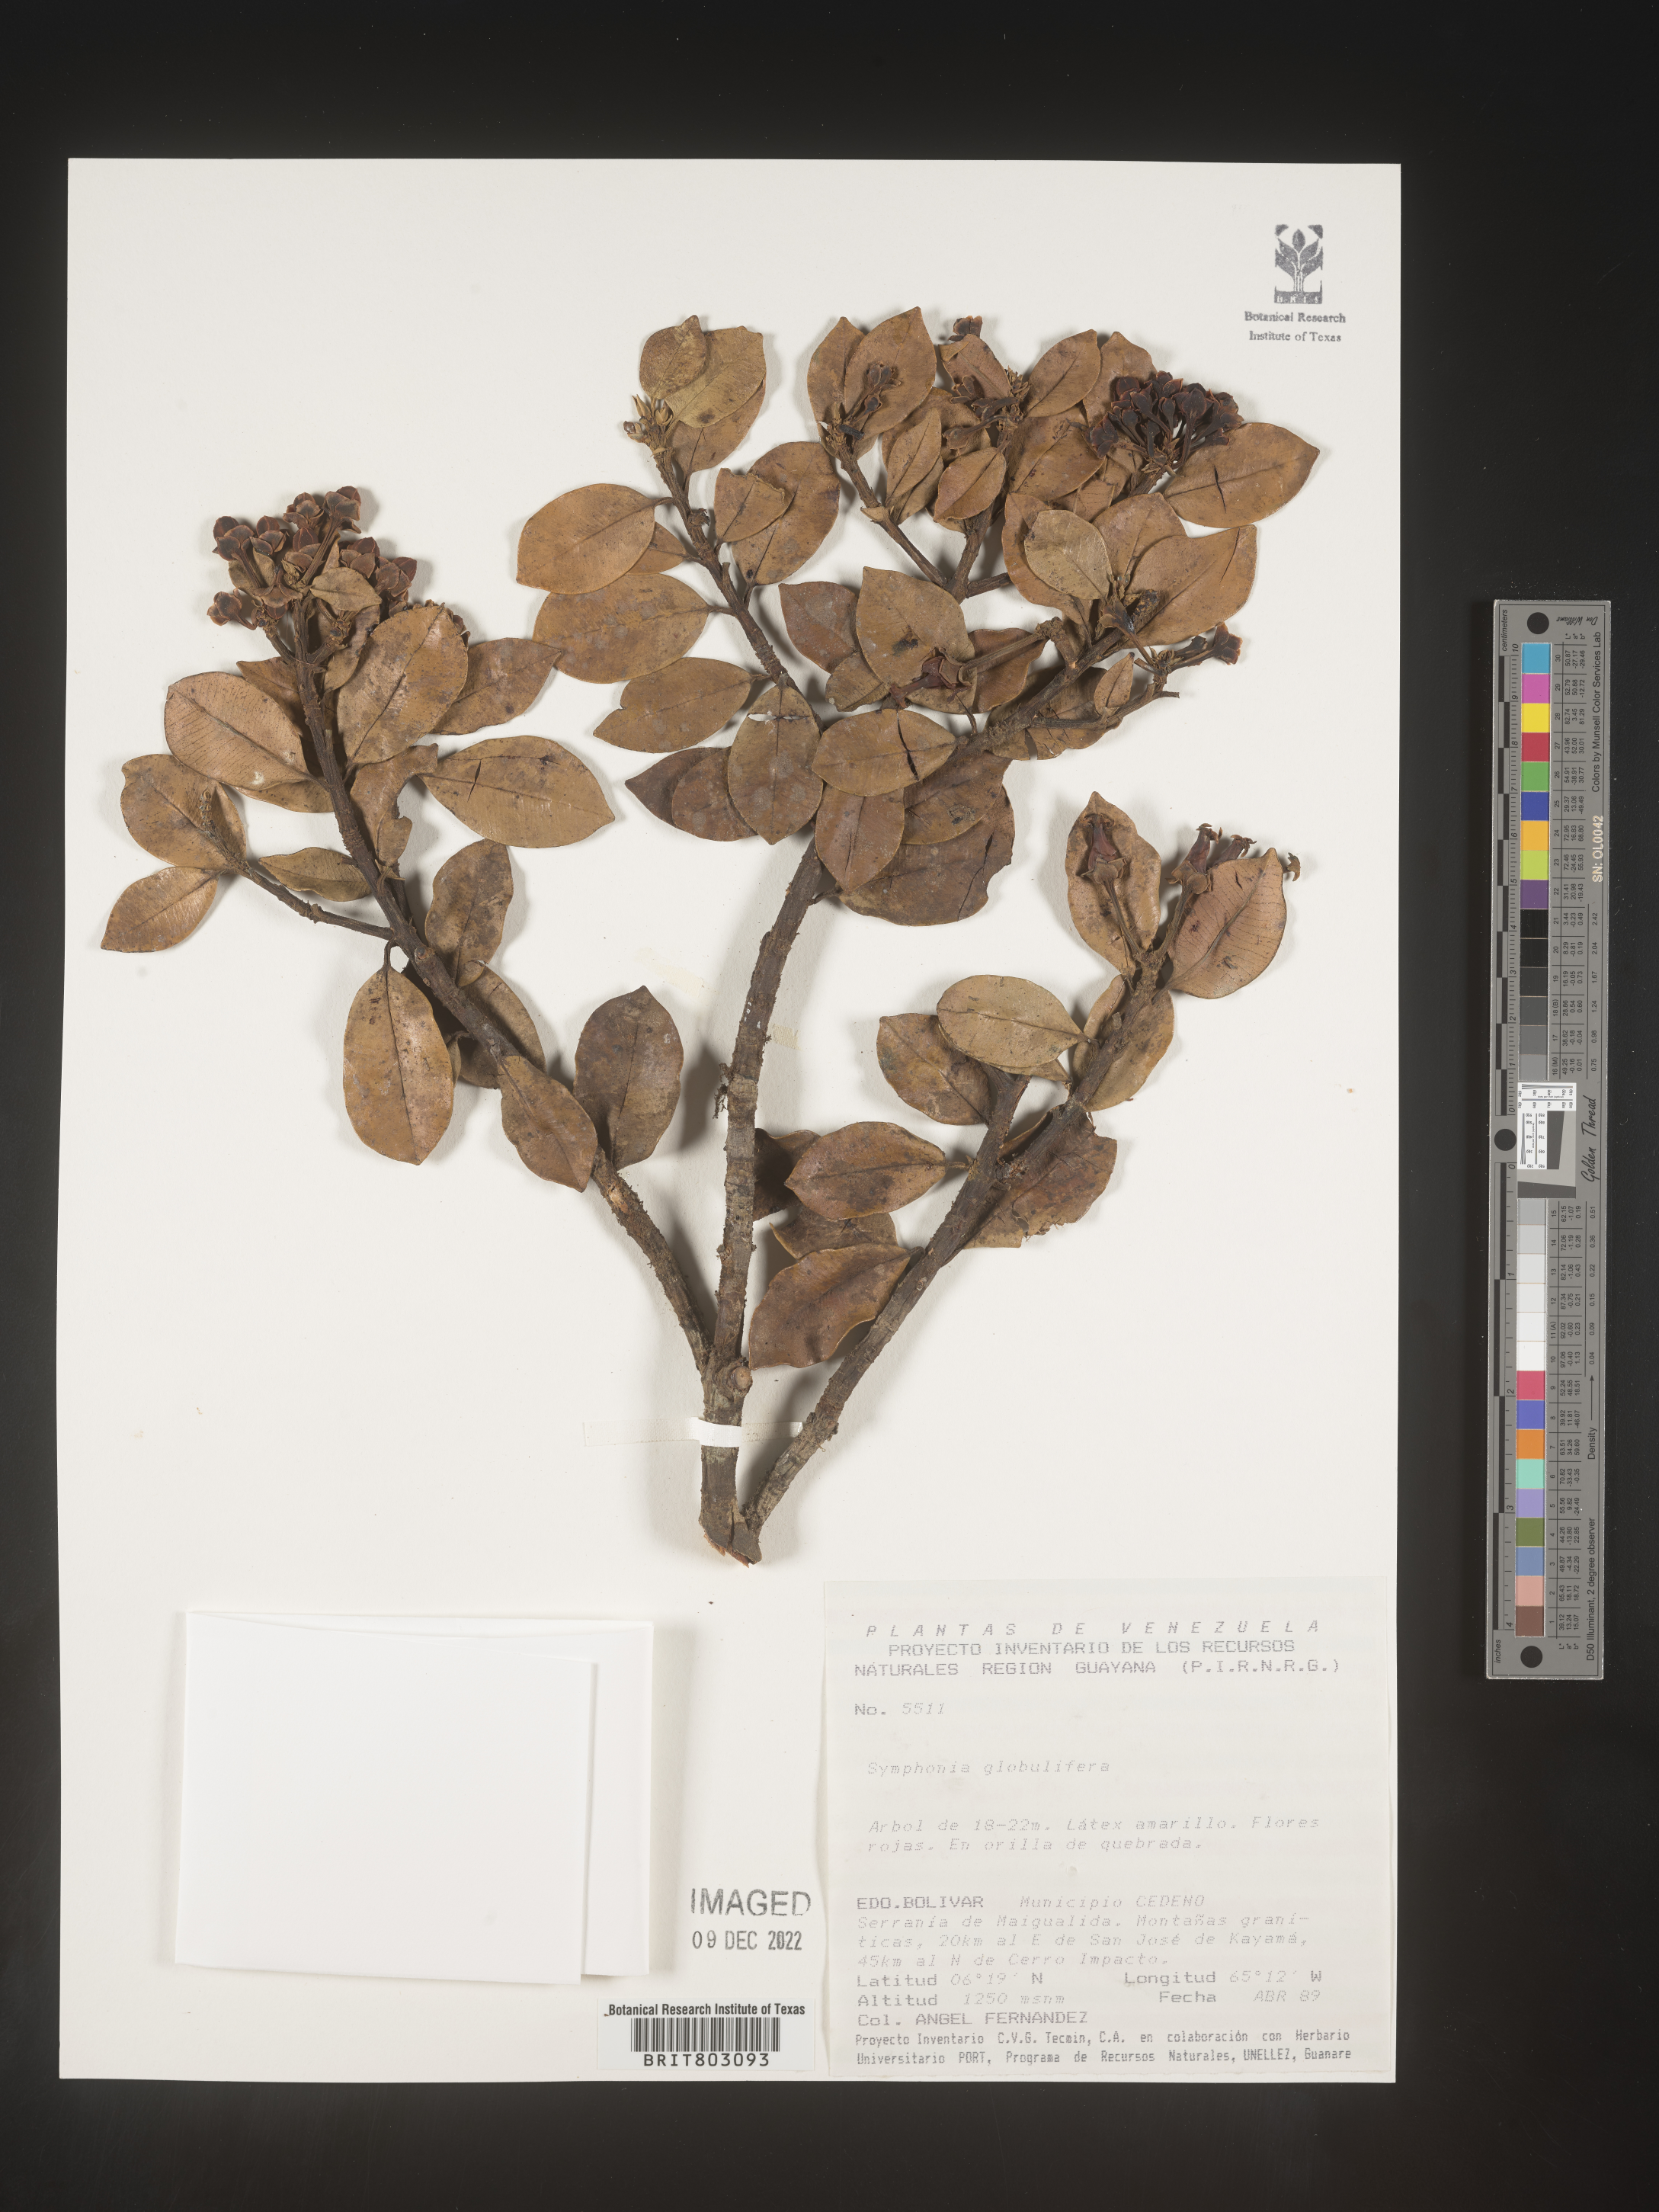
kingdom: Plantae
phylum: Tracheophyta
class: Magnoliopsida
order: Malpighiales
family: Clusiaceae
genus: Symphonia
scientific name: Symphonia
